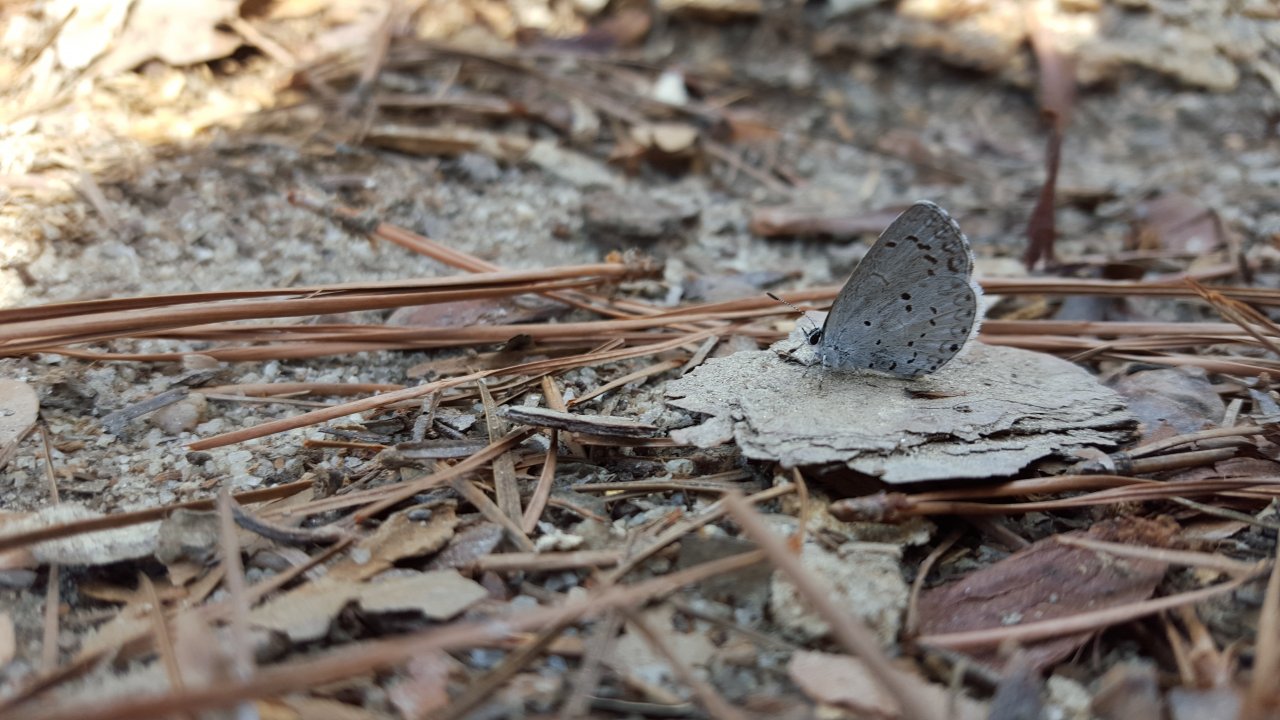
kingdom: Animalia
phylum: Arthropoda
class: Insecta
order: Lepidoptera
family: Lycaenidae
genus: Celastrina
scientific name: Celastrina
